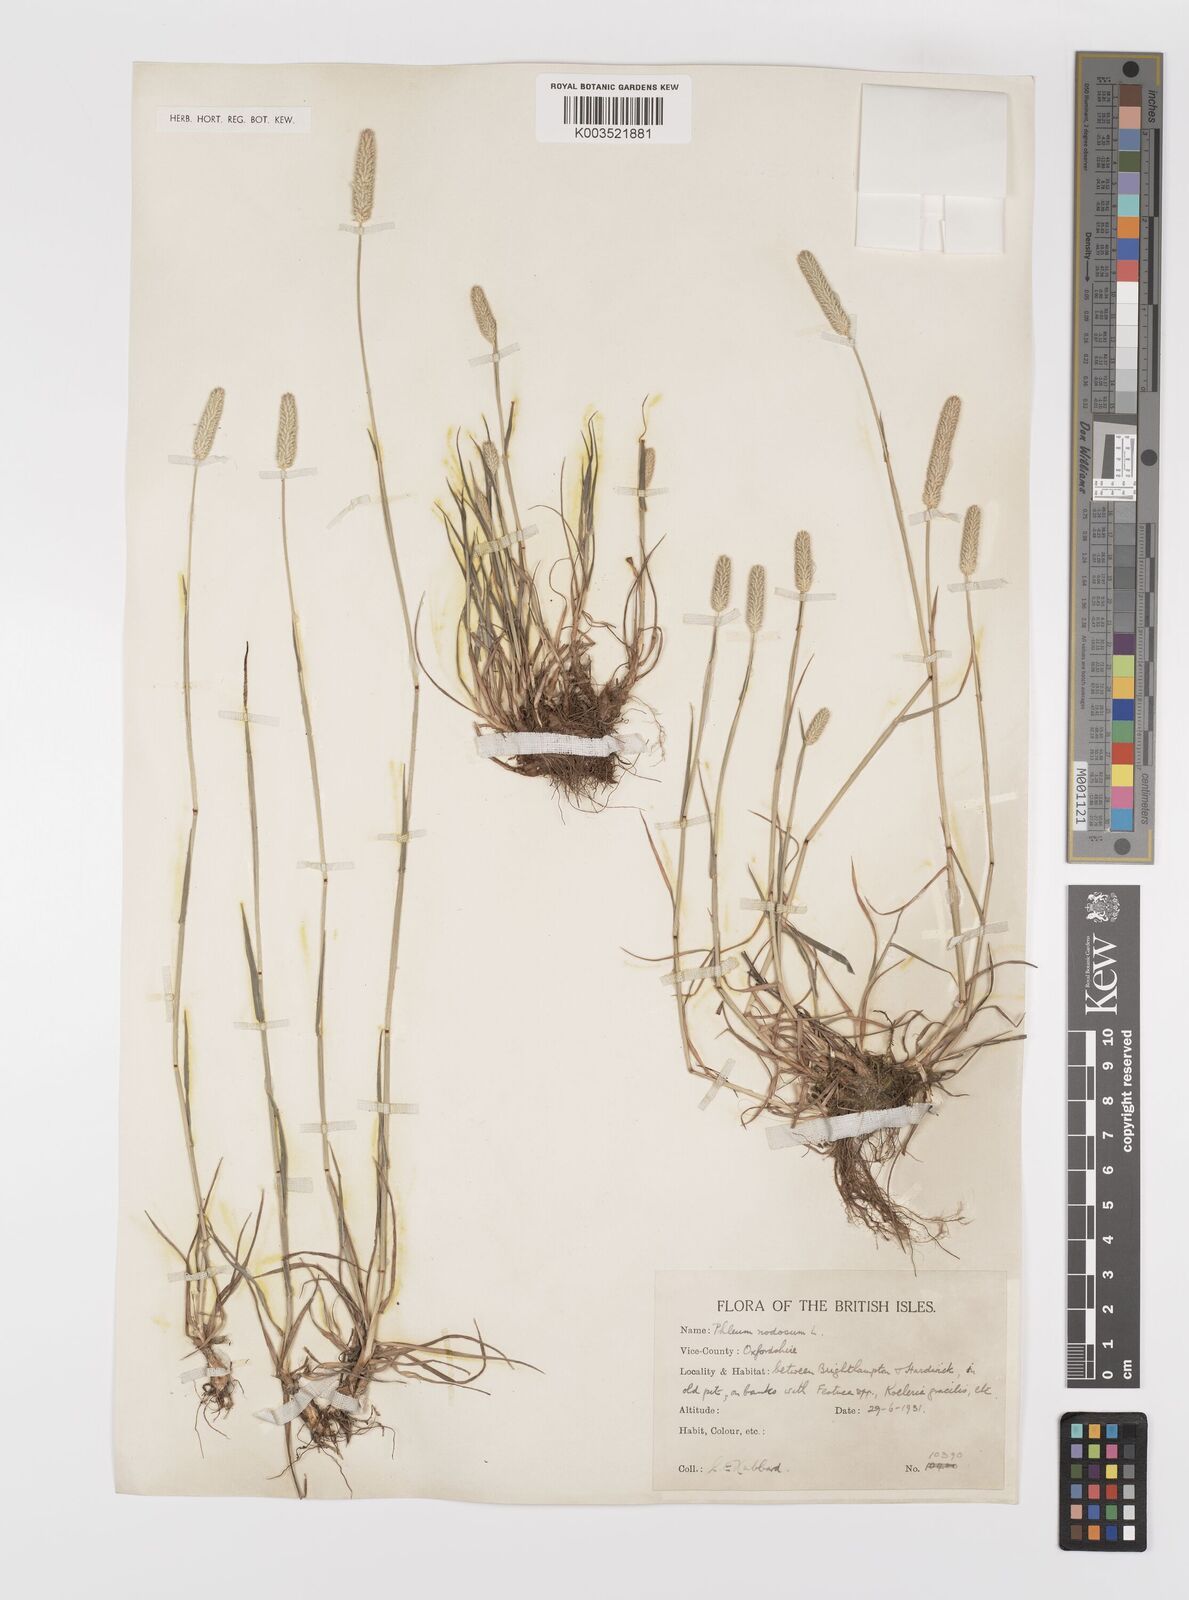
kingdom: Plantae
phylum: Tracheophyta
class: Liliopsida
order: Poales
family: Poaceae
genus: Phleum
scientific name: Phleum pratense
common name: Timothy grass
